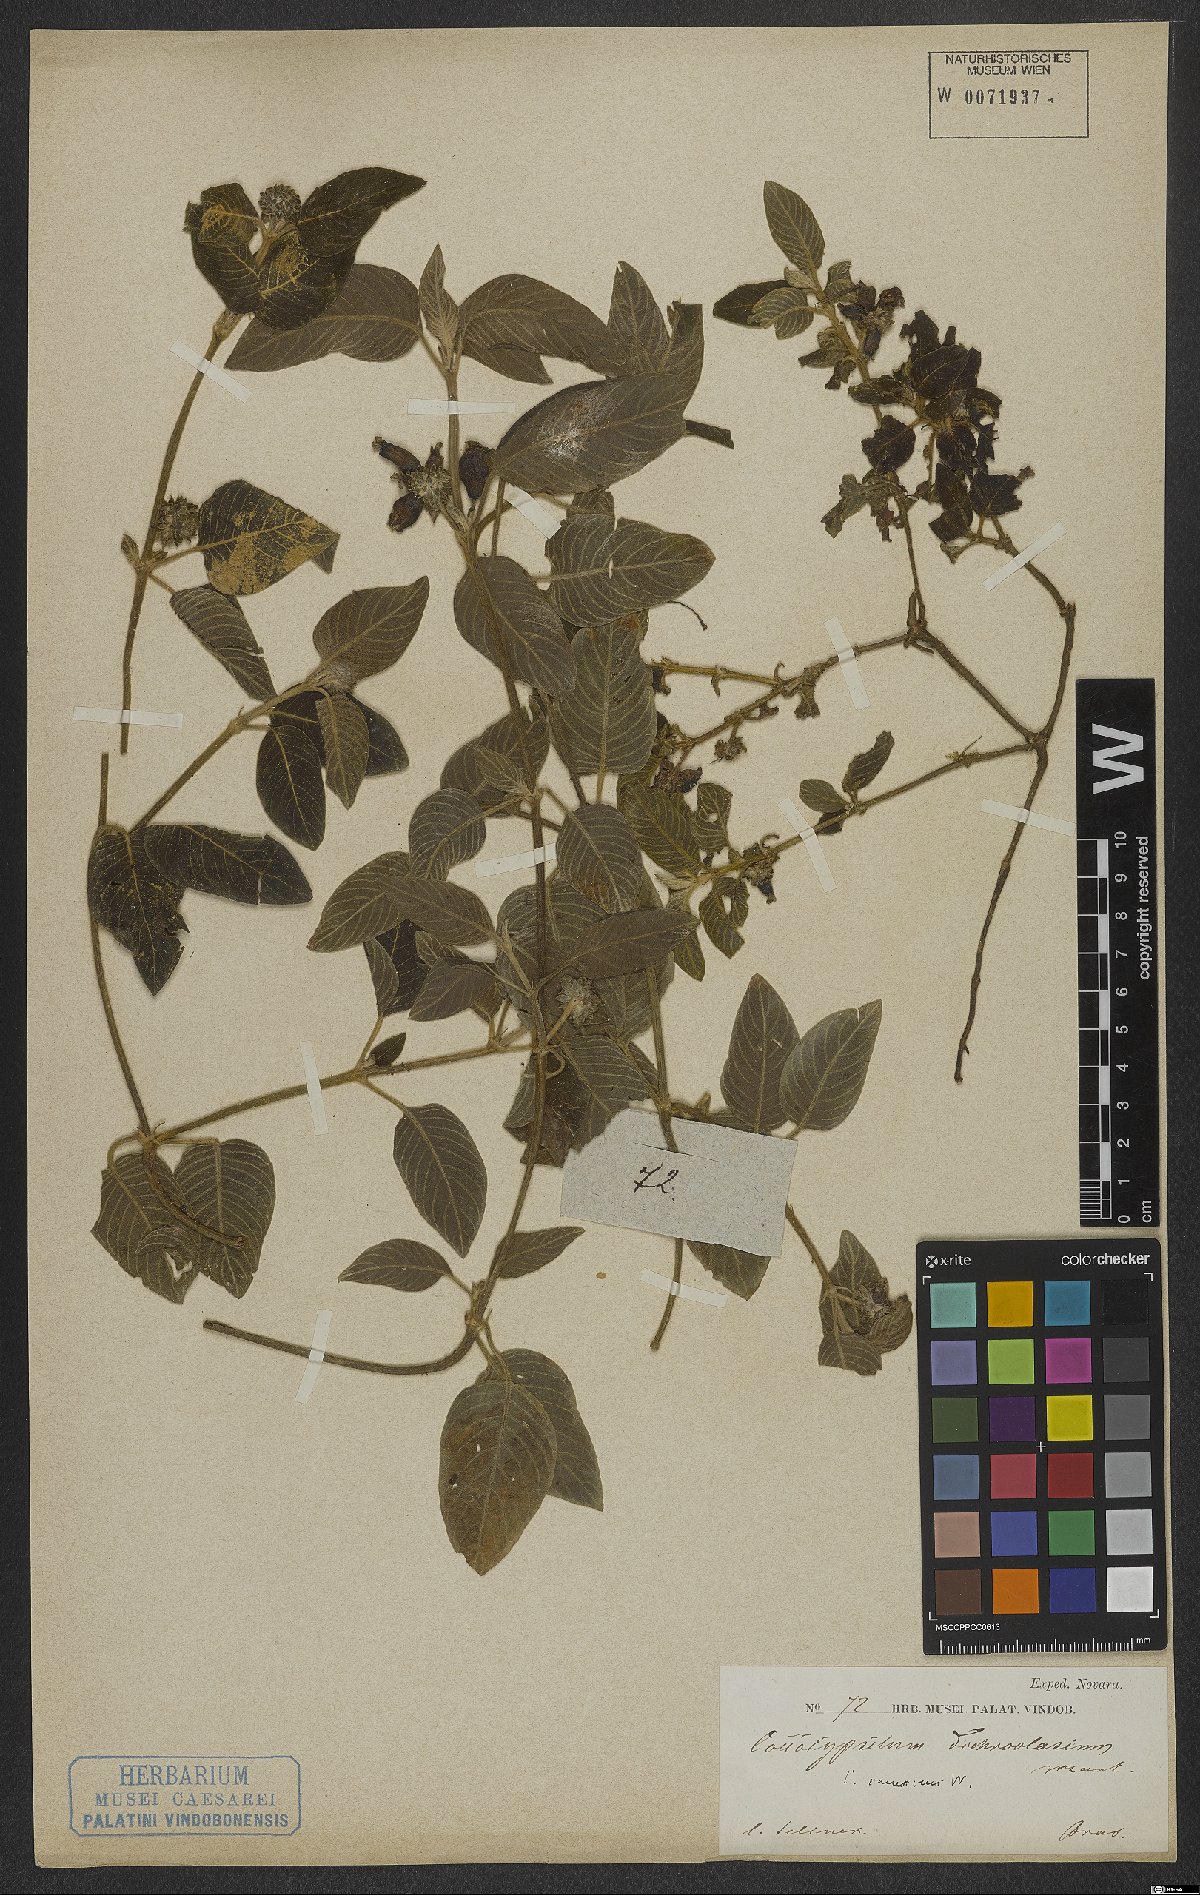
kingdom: Plantae
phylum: Tracheophyta
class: Magnoliopsida
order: Gentianales
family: Rubiaceae
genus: Coccocypselum
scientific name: Coccocypselum lanceolatum
